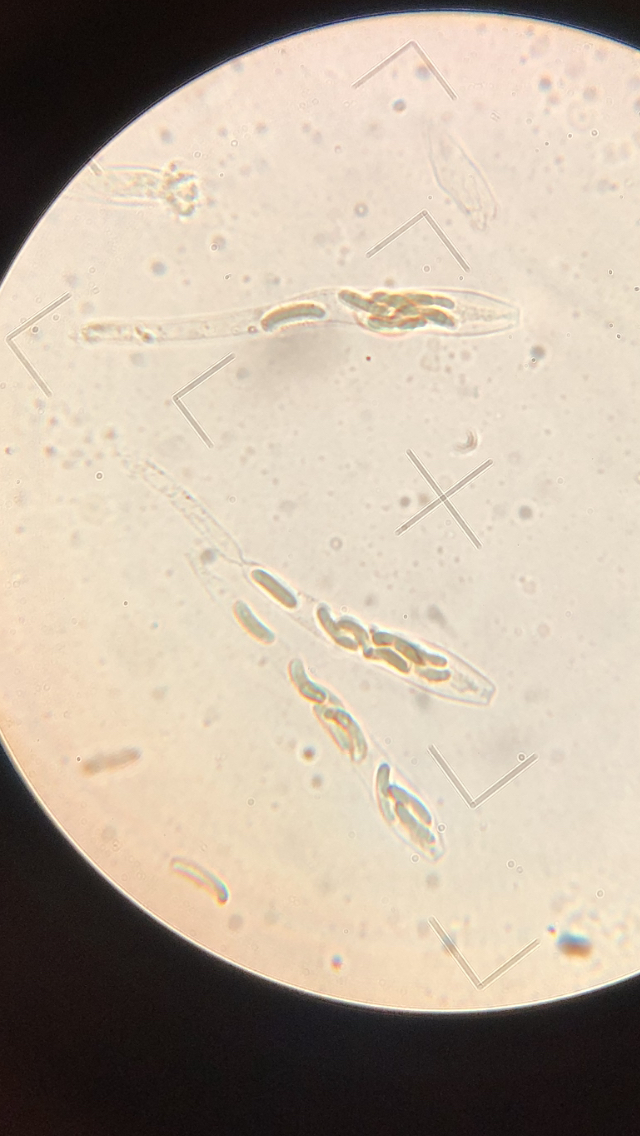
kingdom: Fungi
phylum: Ascomycota
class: Sordariomycetes
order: Xylariales
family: Diatrypaceae
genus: Eutypa
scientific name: Eutypa flavovirens
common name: grønkødet kulskorpe
